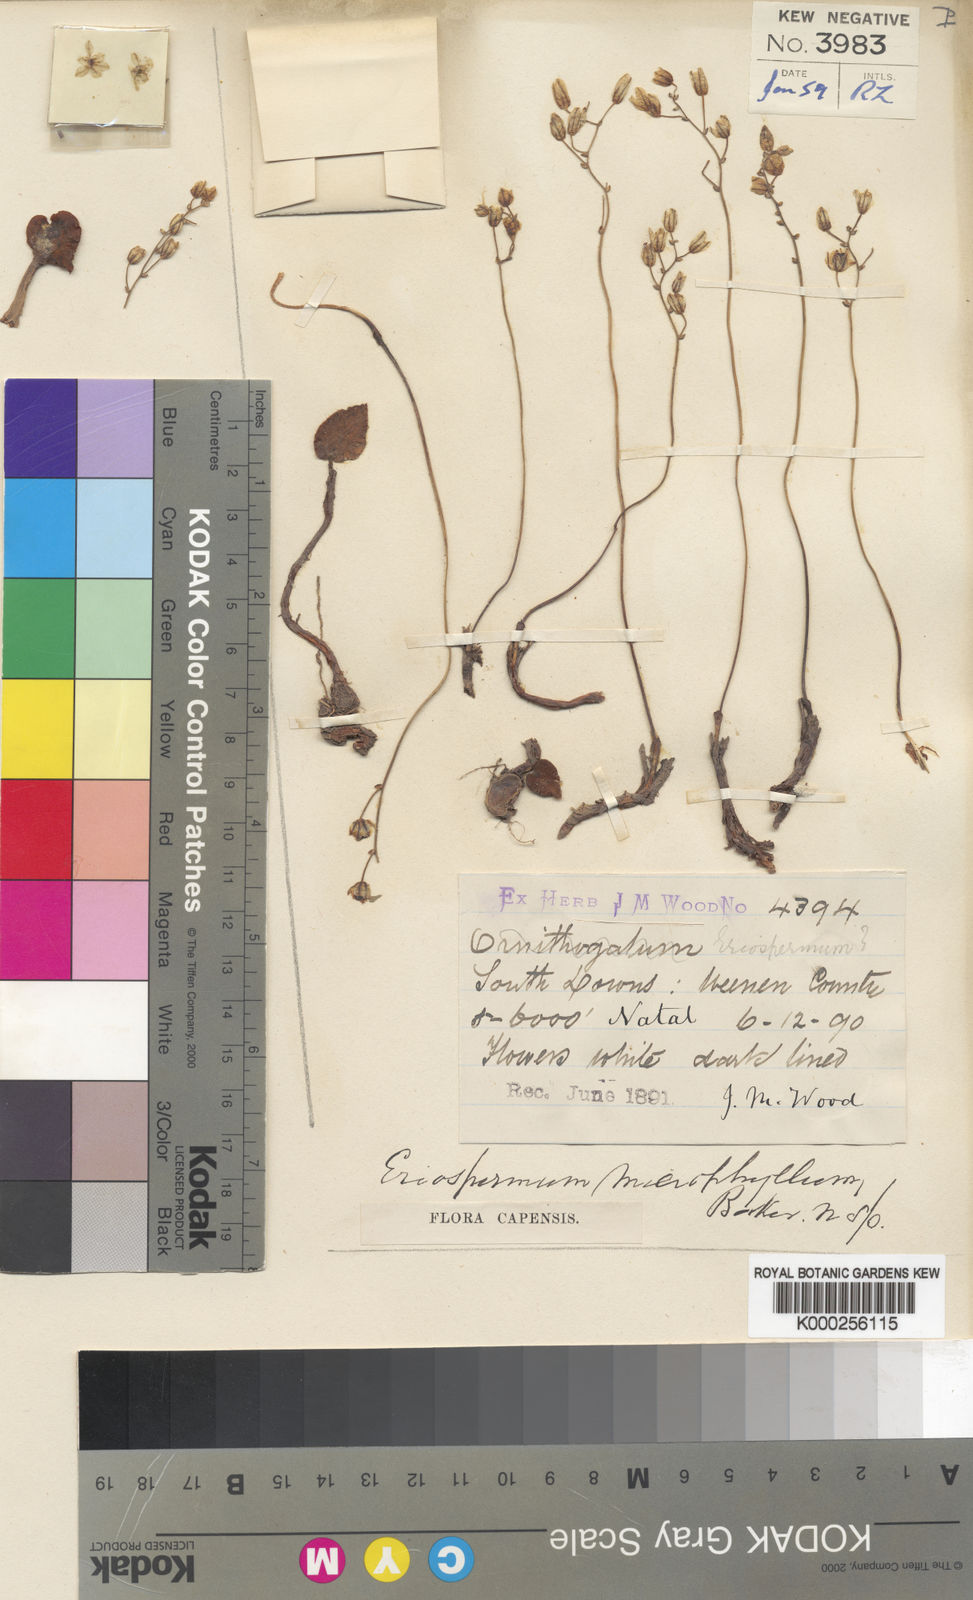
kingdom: Plantae
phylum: Tracheophyta
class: Liliopsida
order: Asparagales
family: Asparagaceae
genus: Eriospermum
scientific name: Eriospermum ornithogaloides
